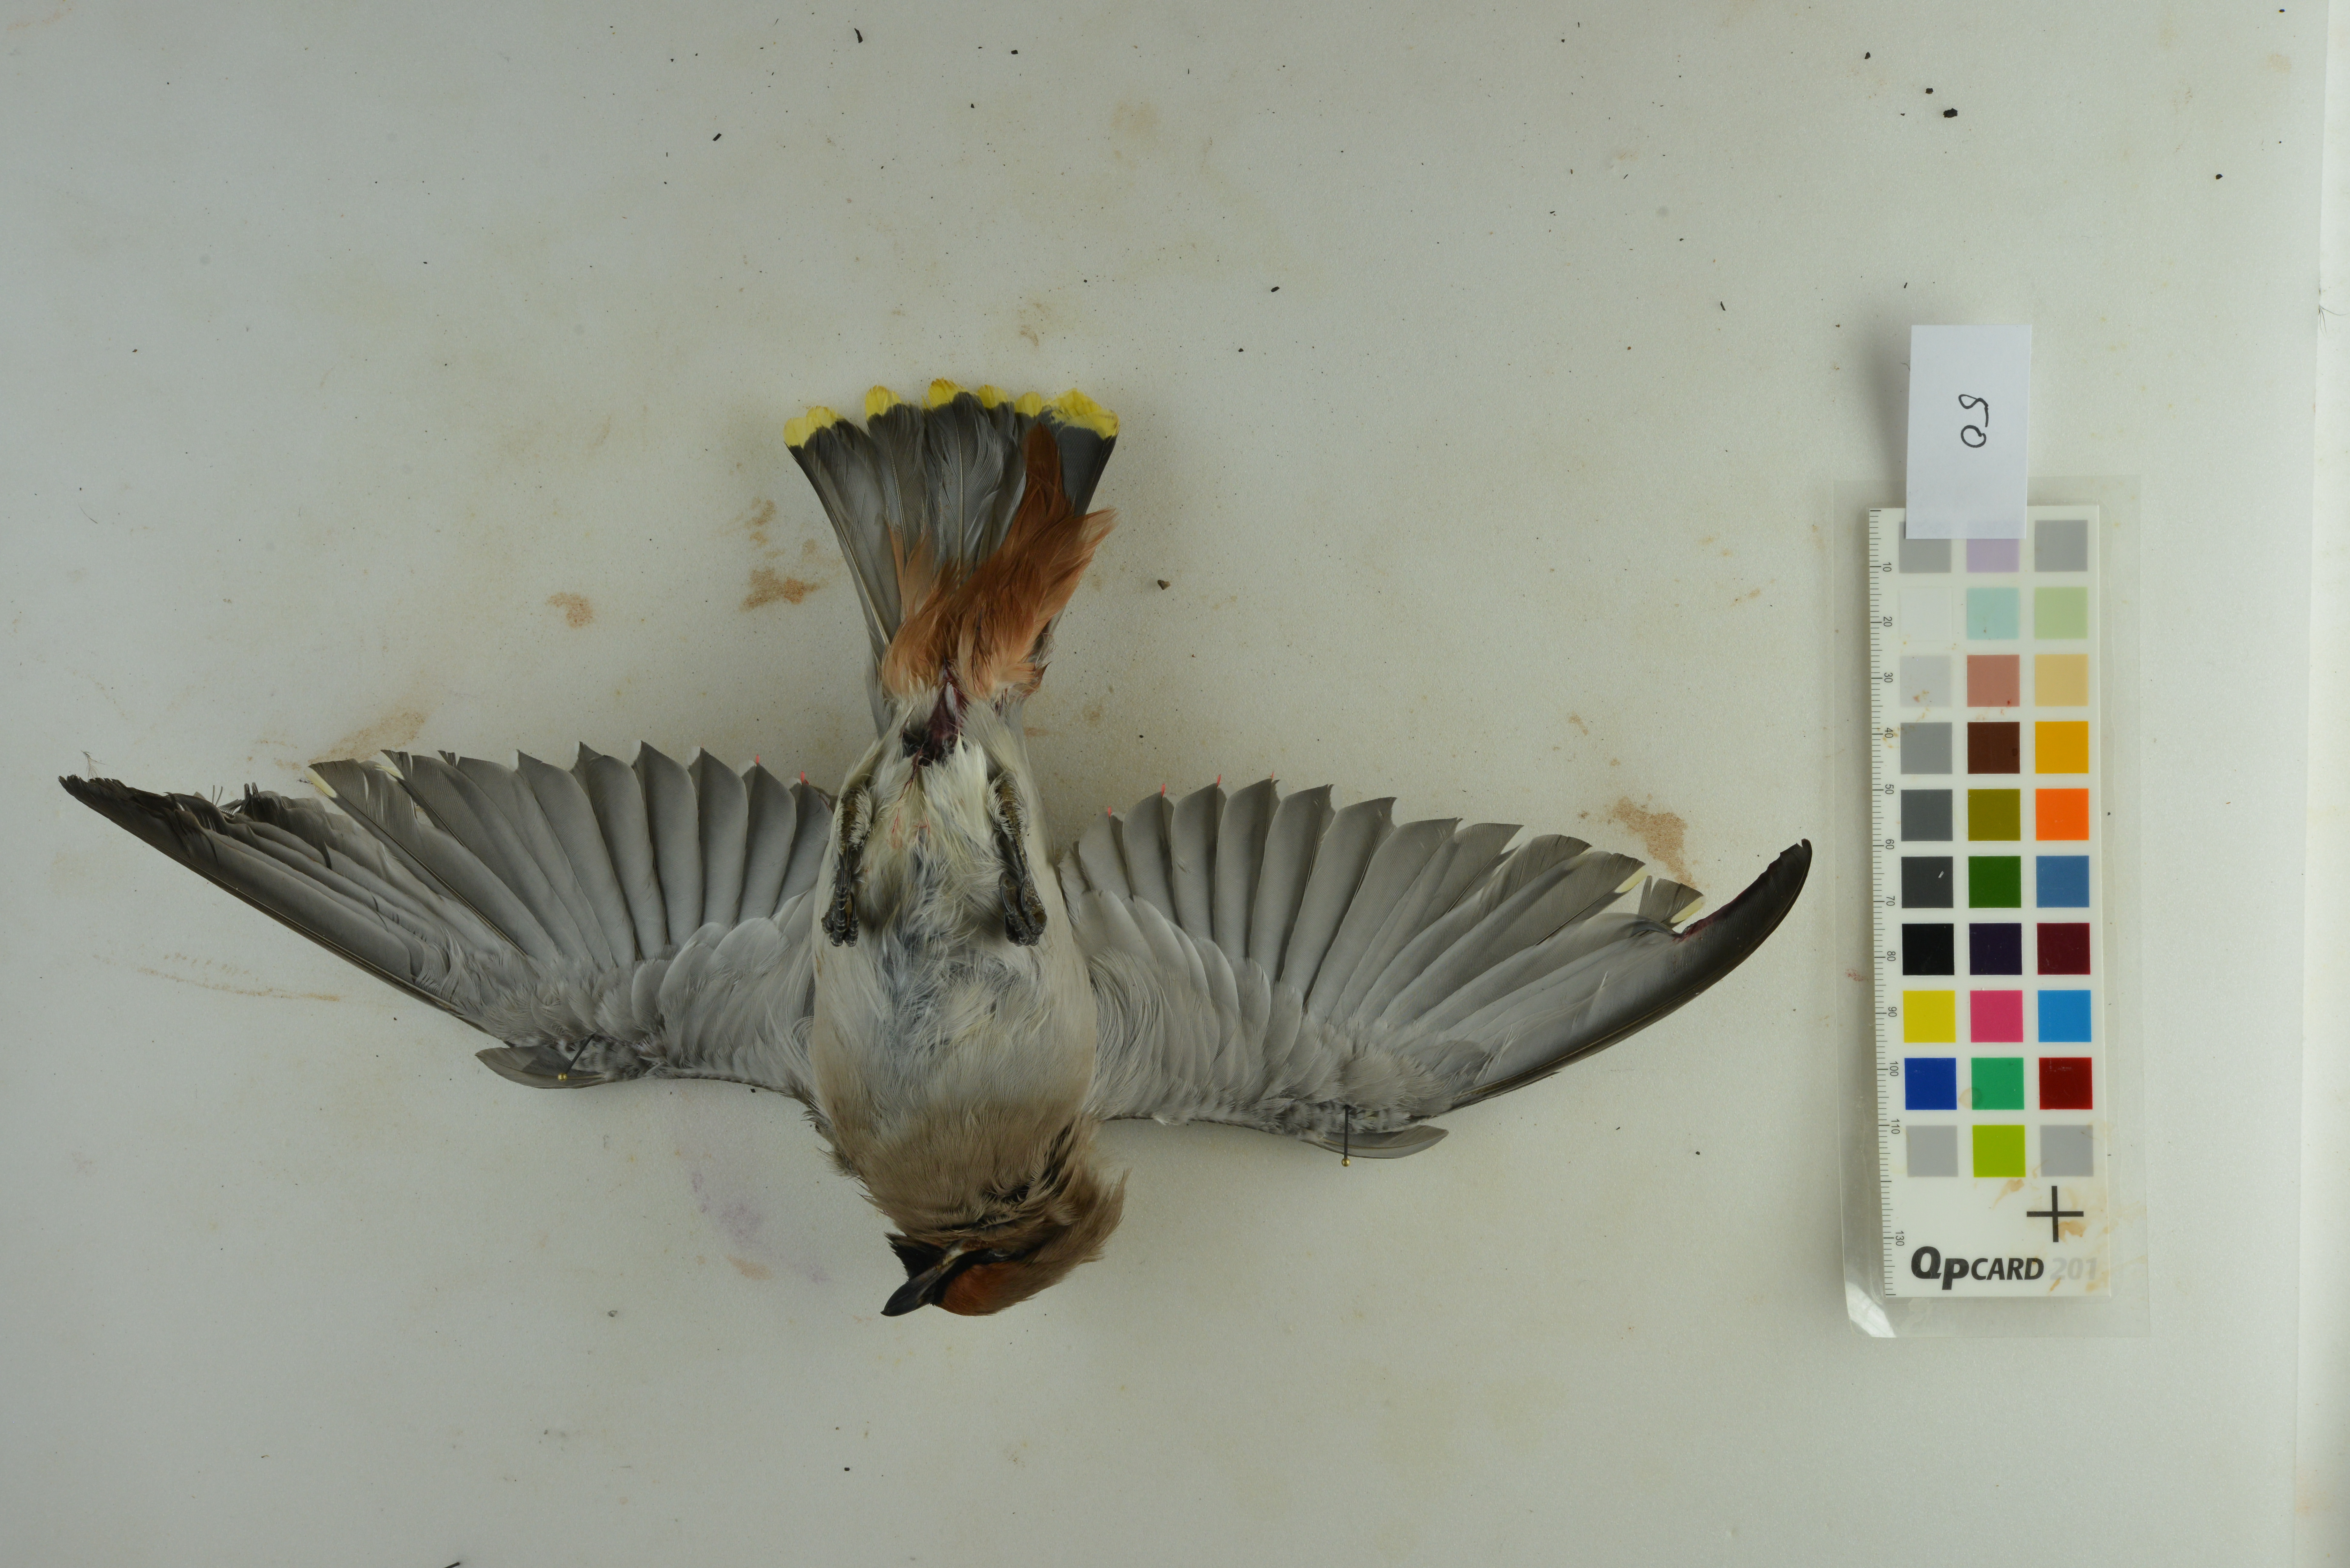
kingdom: Animalia
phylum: Chordata
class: Aves
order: Passeriformes
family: Bombycillidae
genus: Bombycilla
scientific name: Bombycilla garrulus
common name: Bohemian waxwing
